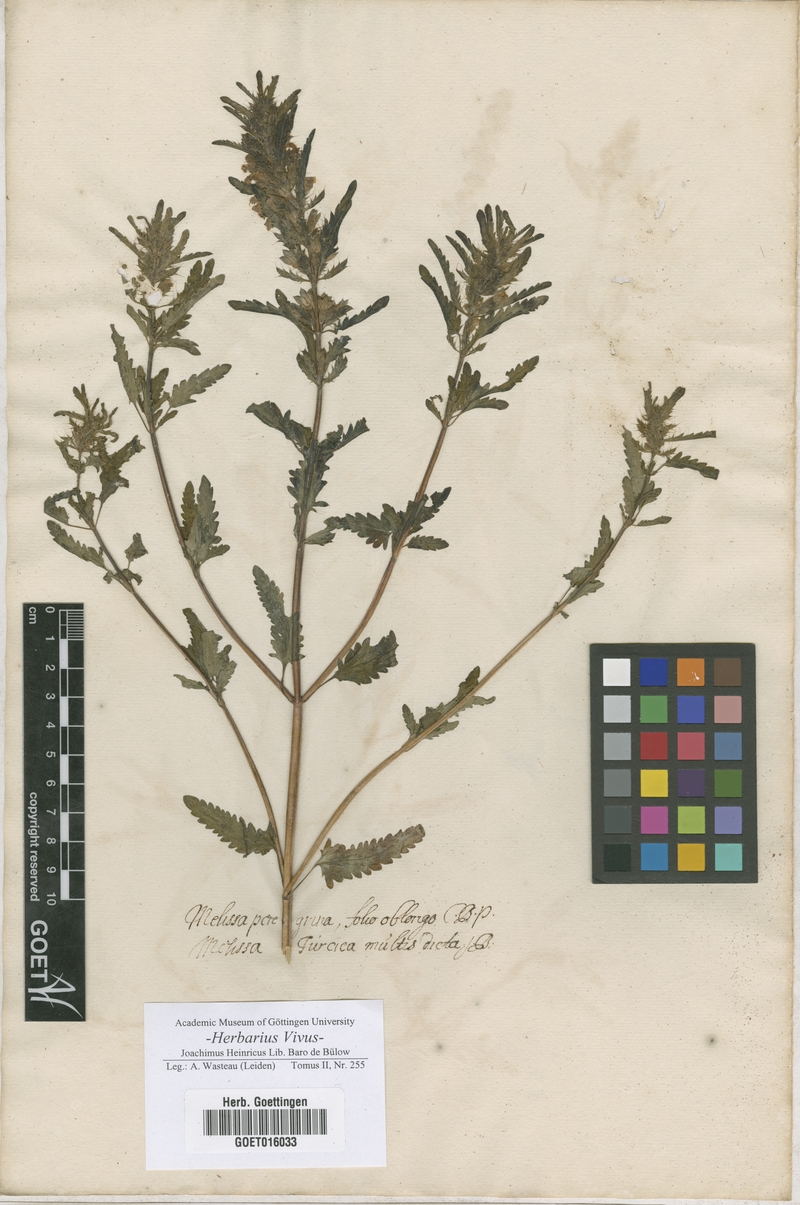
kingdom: Plantae
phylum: Tracheophyta
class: Magnoliopsida
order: Lamiales
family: Lamiaceae
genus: Melissa
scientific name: Melissa
